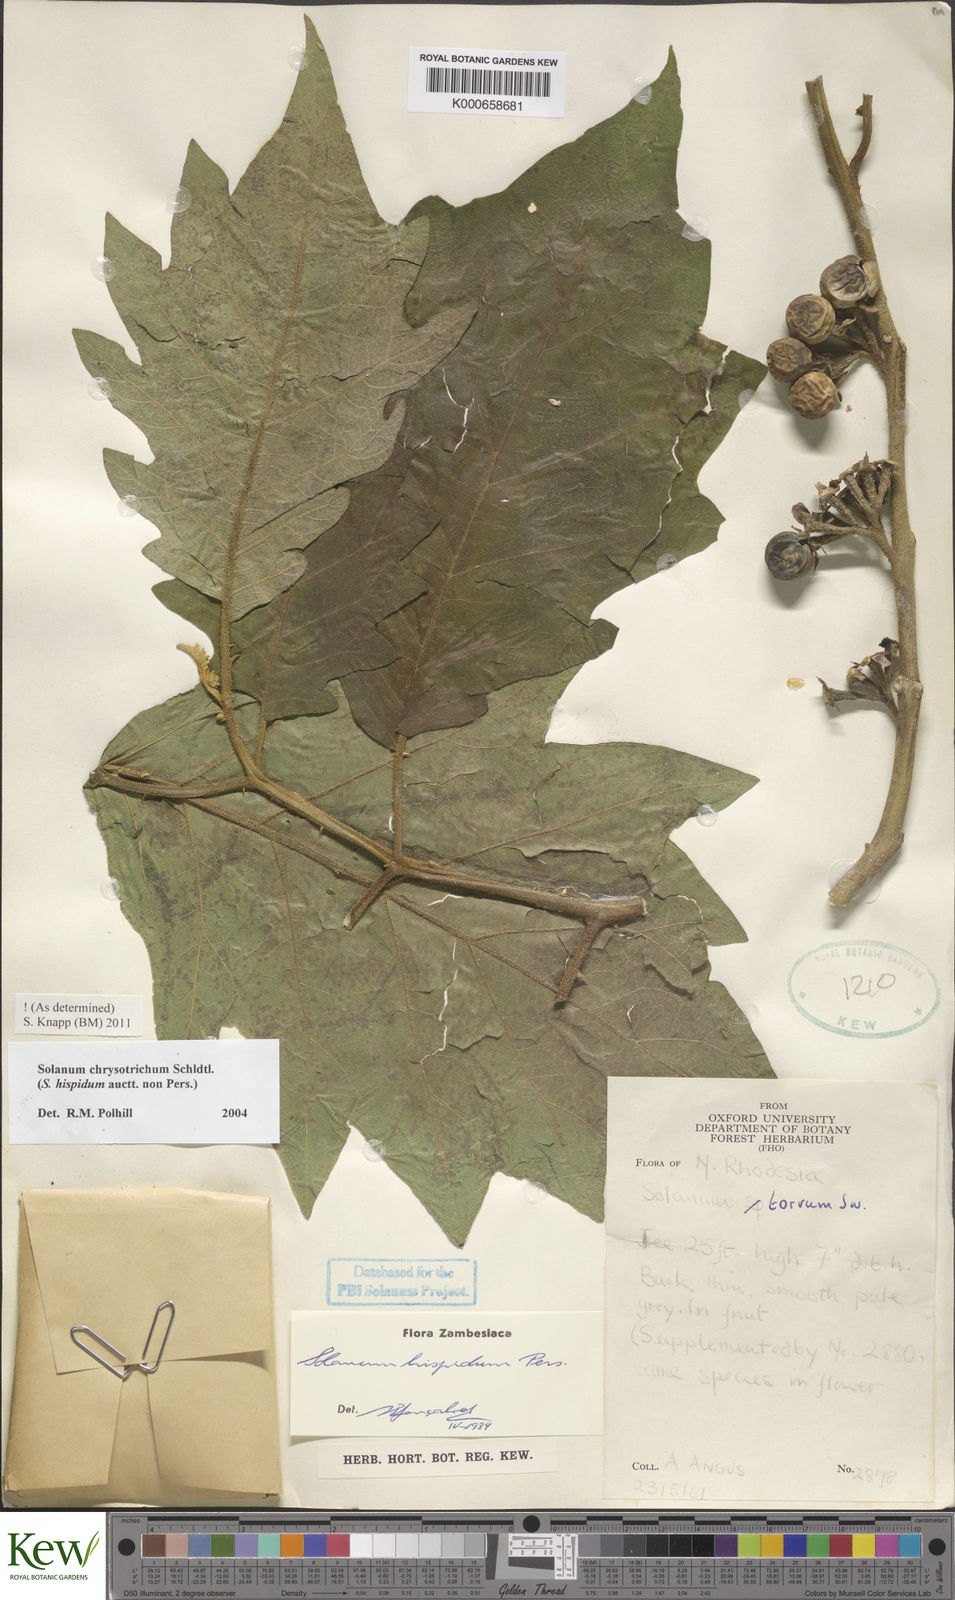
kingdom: Plantae
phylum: Tracheophyta
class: Magnoliopsida
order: Solanales
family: Solanaceae
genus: Solanum
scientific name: Solanum torvum
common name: Turkey berry
